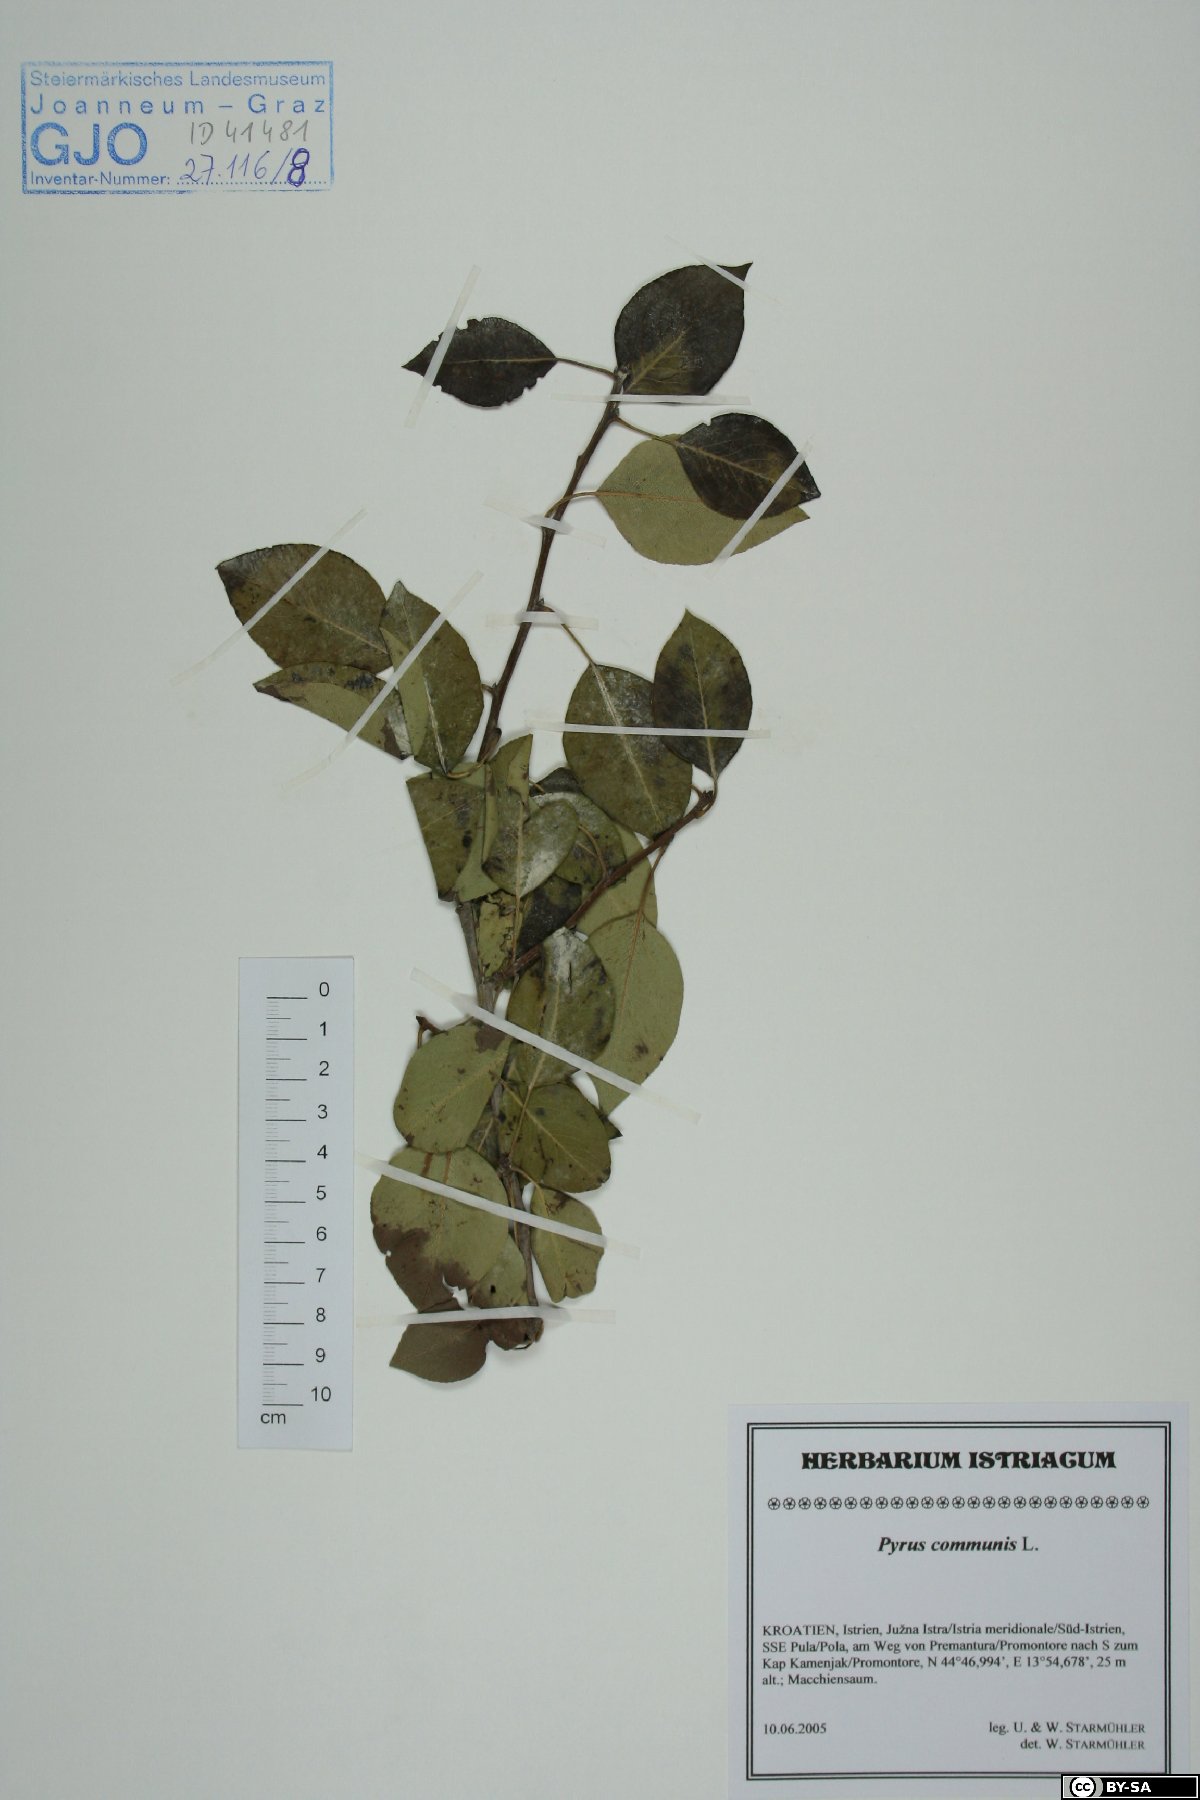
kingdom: Plantae
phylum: Tracheophyta
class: Magnoliopsida
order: Rosales
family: Rosaceae
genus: Pyrus
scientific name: Pyrus communis
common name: Pear
